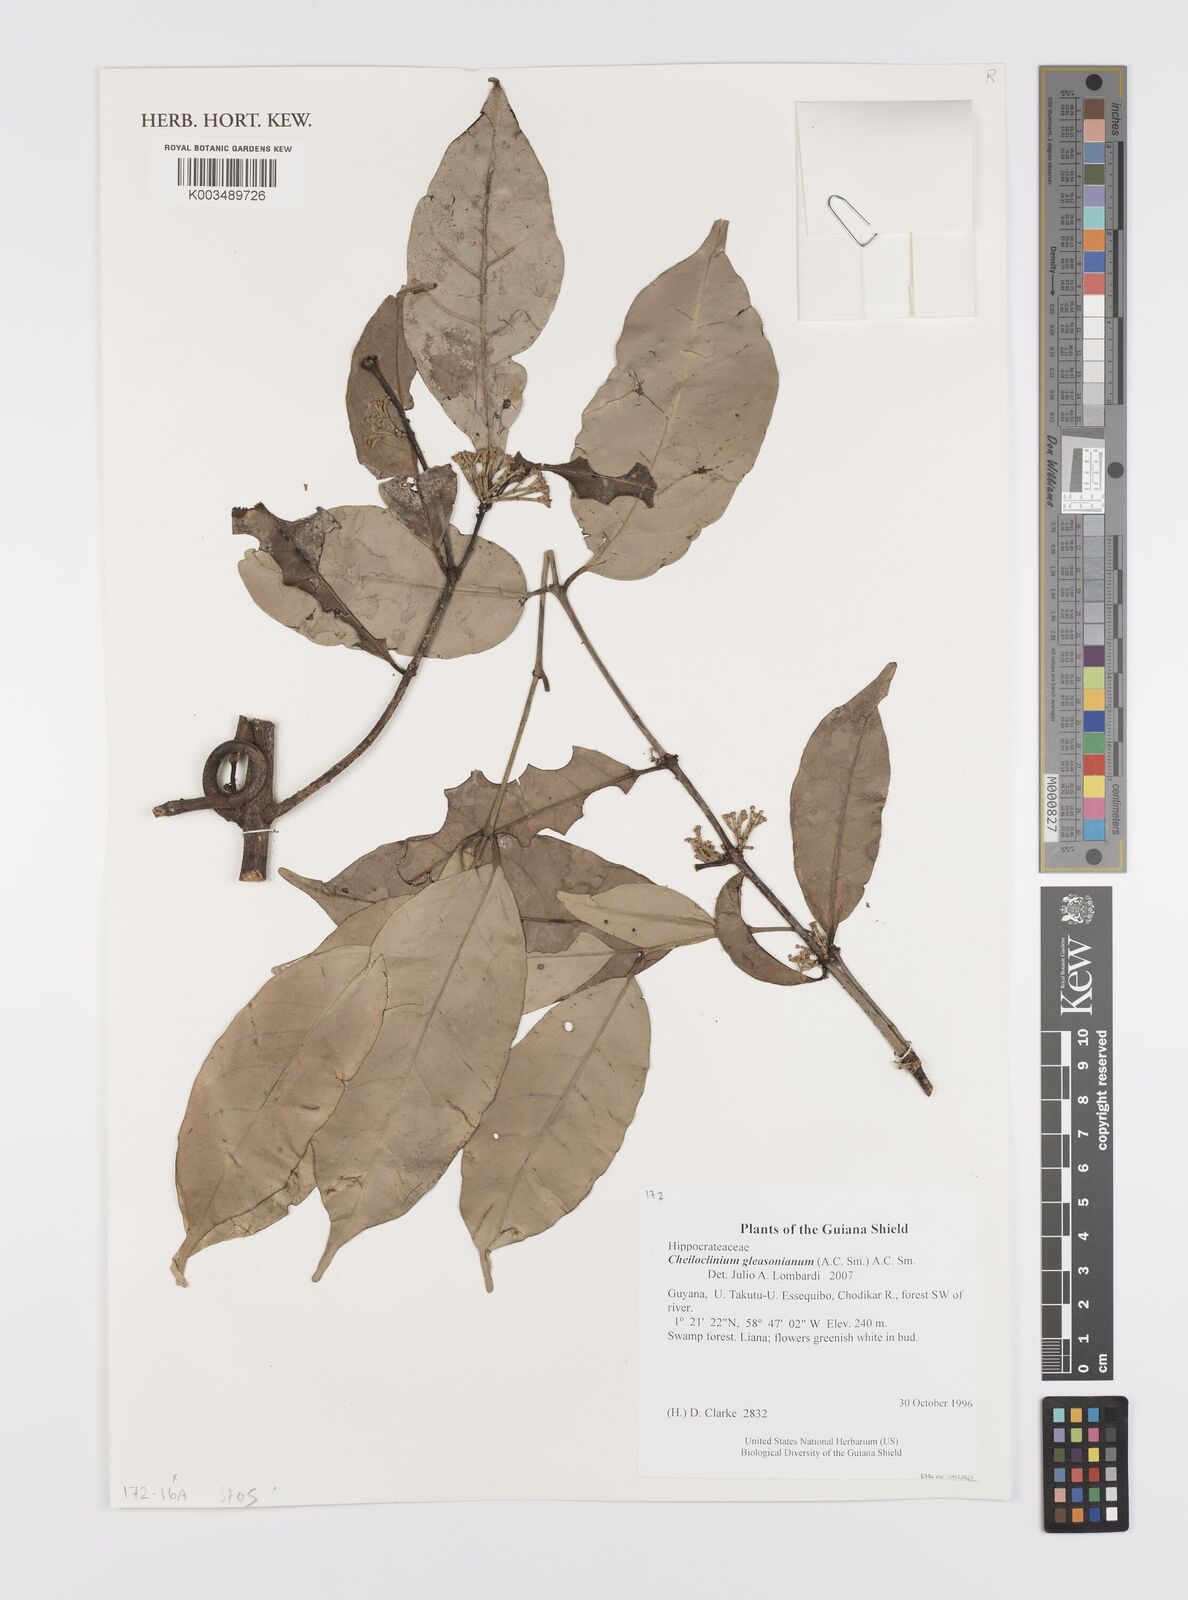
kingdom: Plantae
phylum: Tracheophyta
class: Magnoliopsida
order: Celastrales
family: Celastraceae
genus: Cheiloclinium
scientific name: Cheiloclinium gleasonianum
